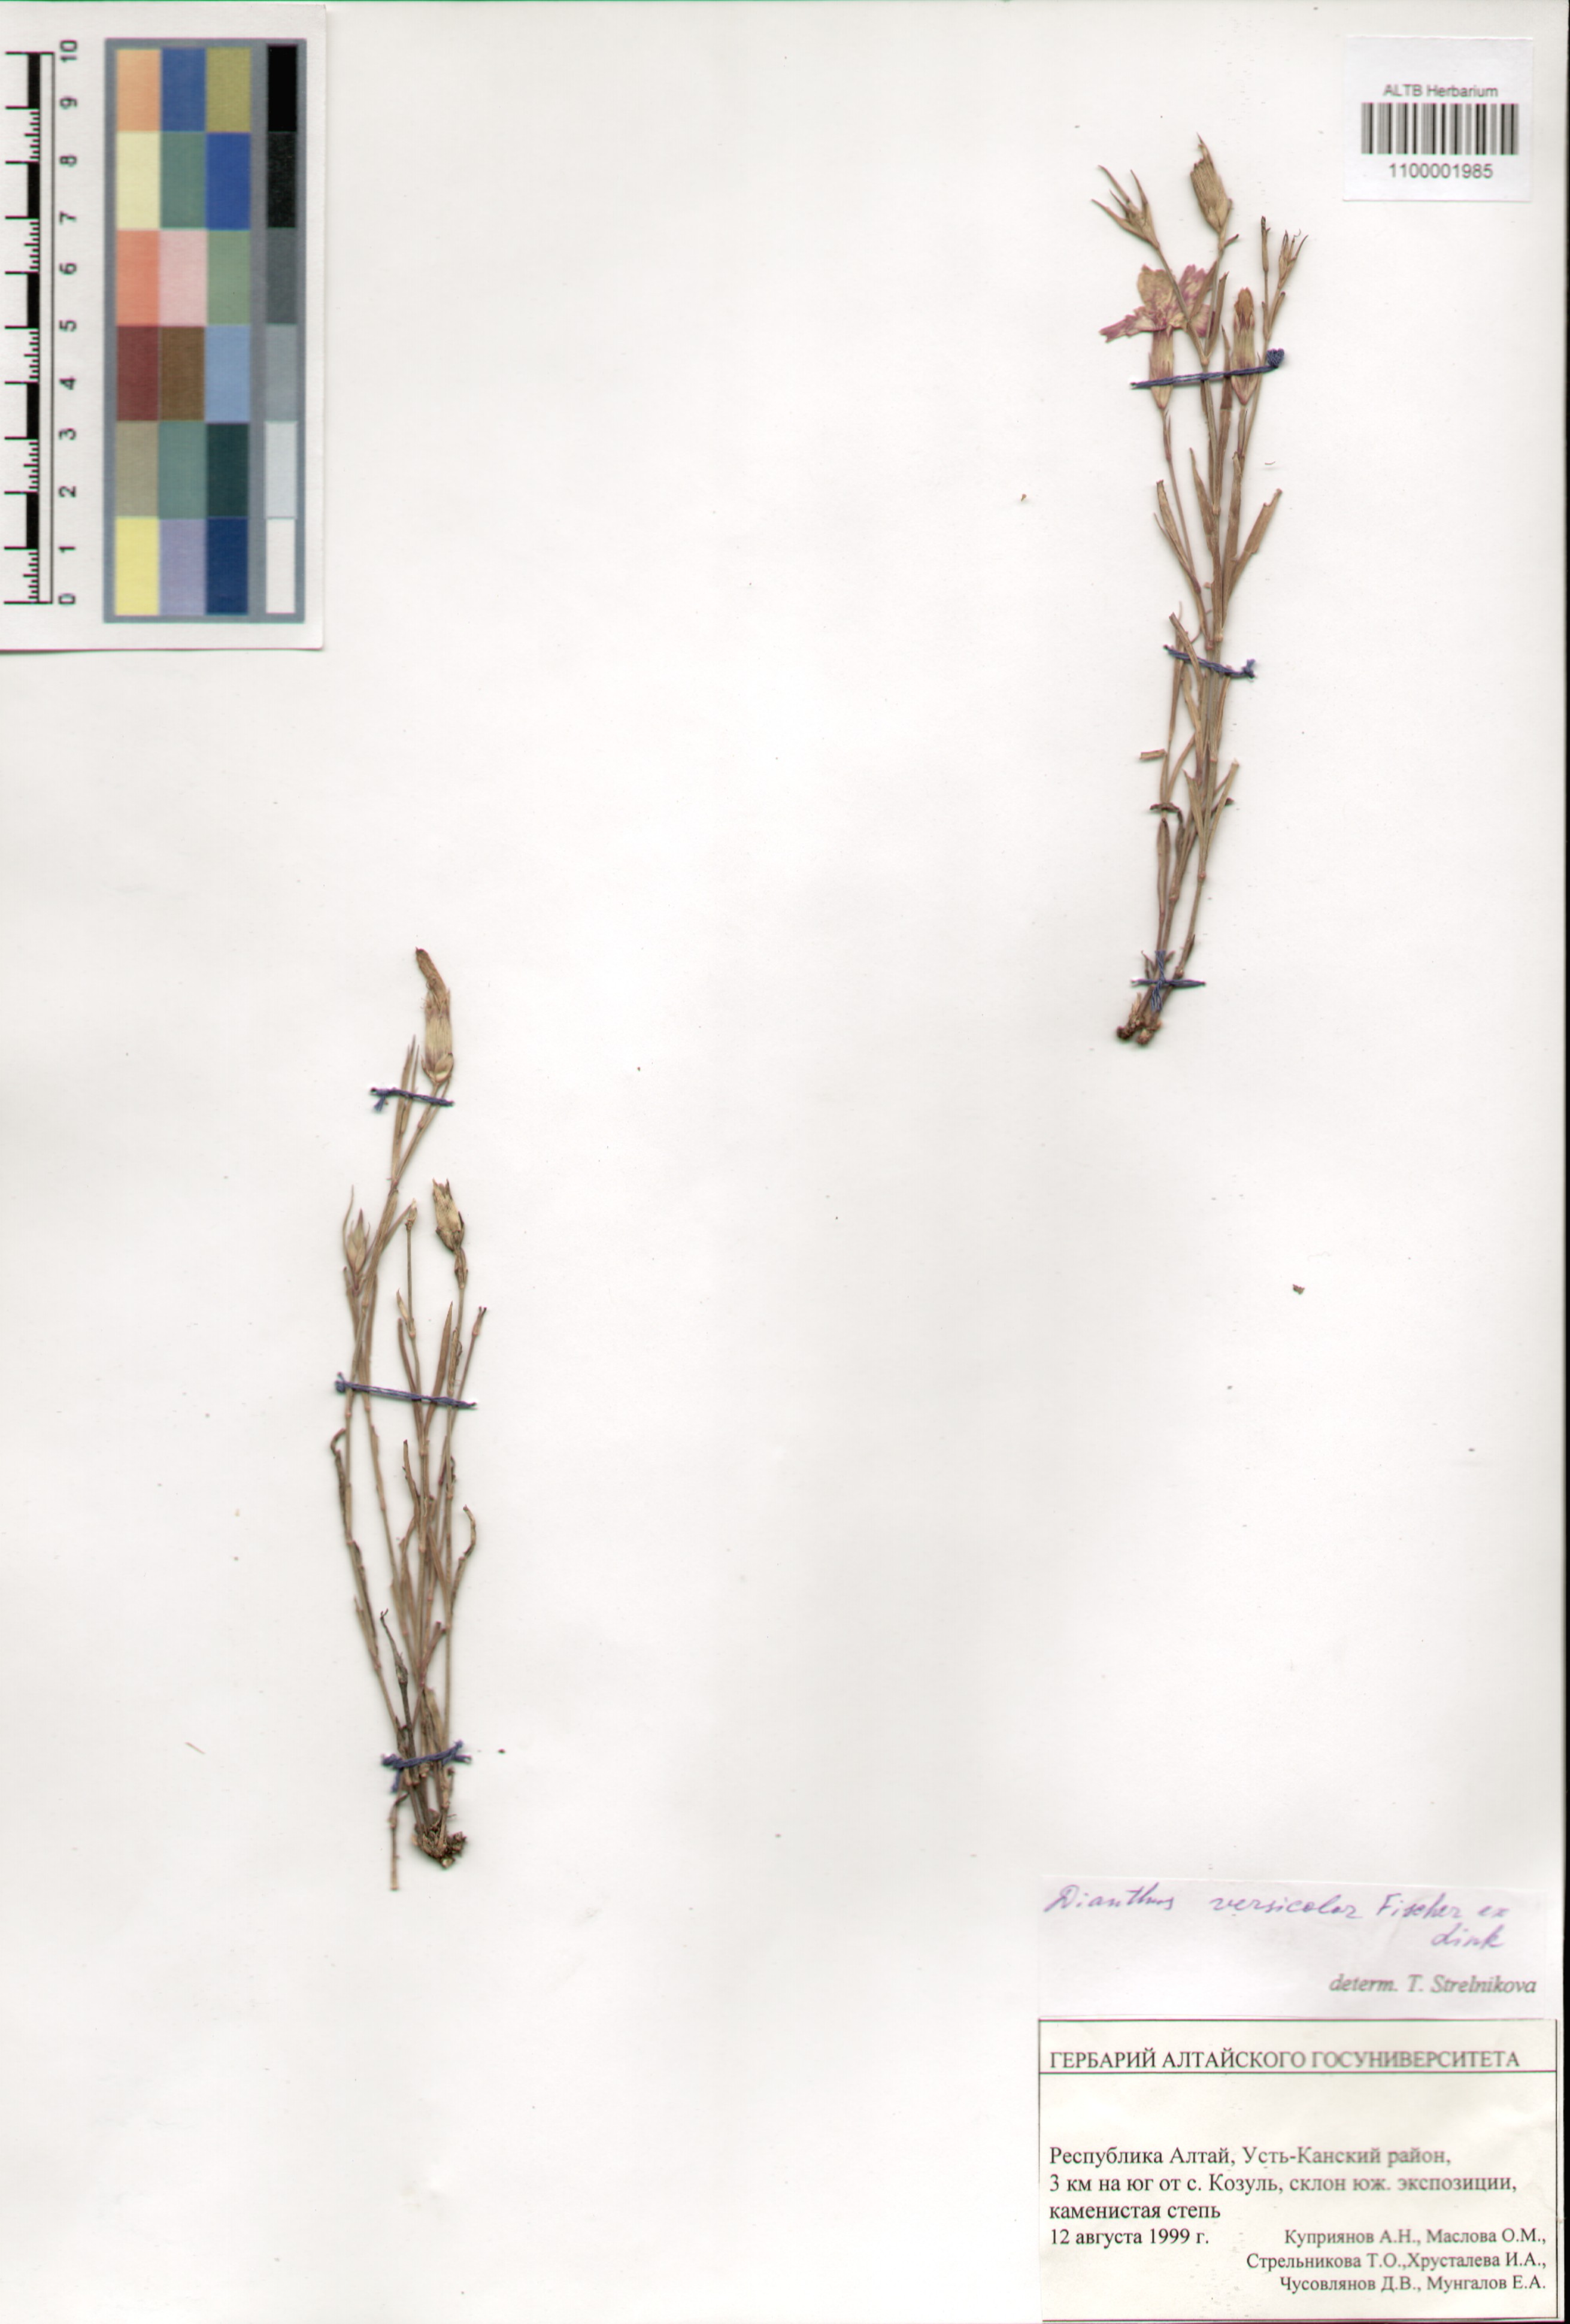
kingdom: Plantae
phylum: Tracheophyta
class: Magnoliopsida
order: Caryophyllales
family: Caryophyllaceae
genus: Dianthus
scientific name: Dianthus chinensis
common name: Rainbow pink
